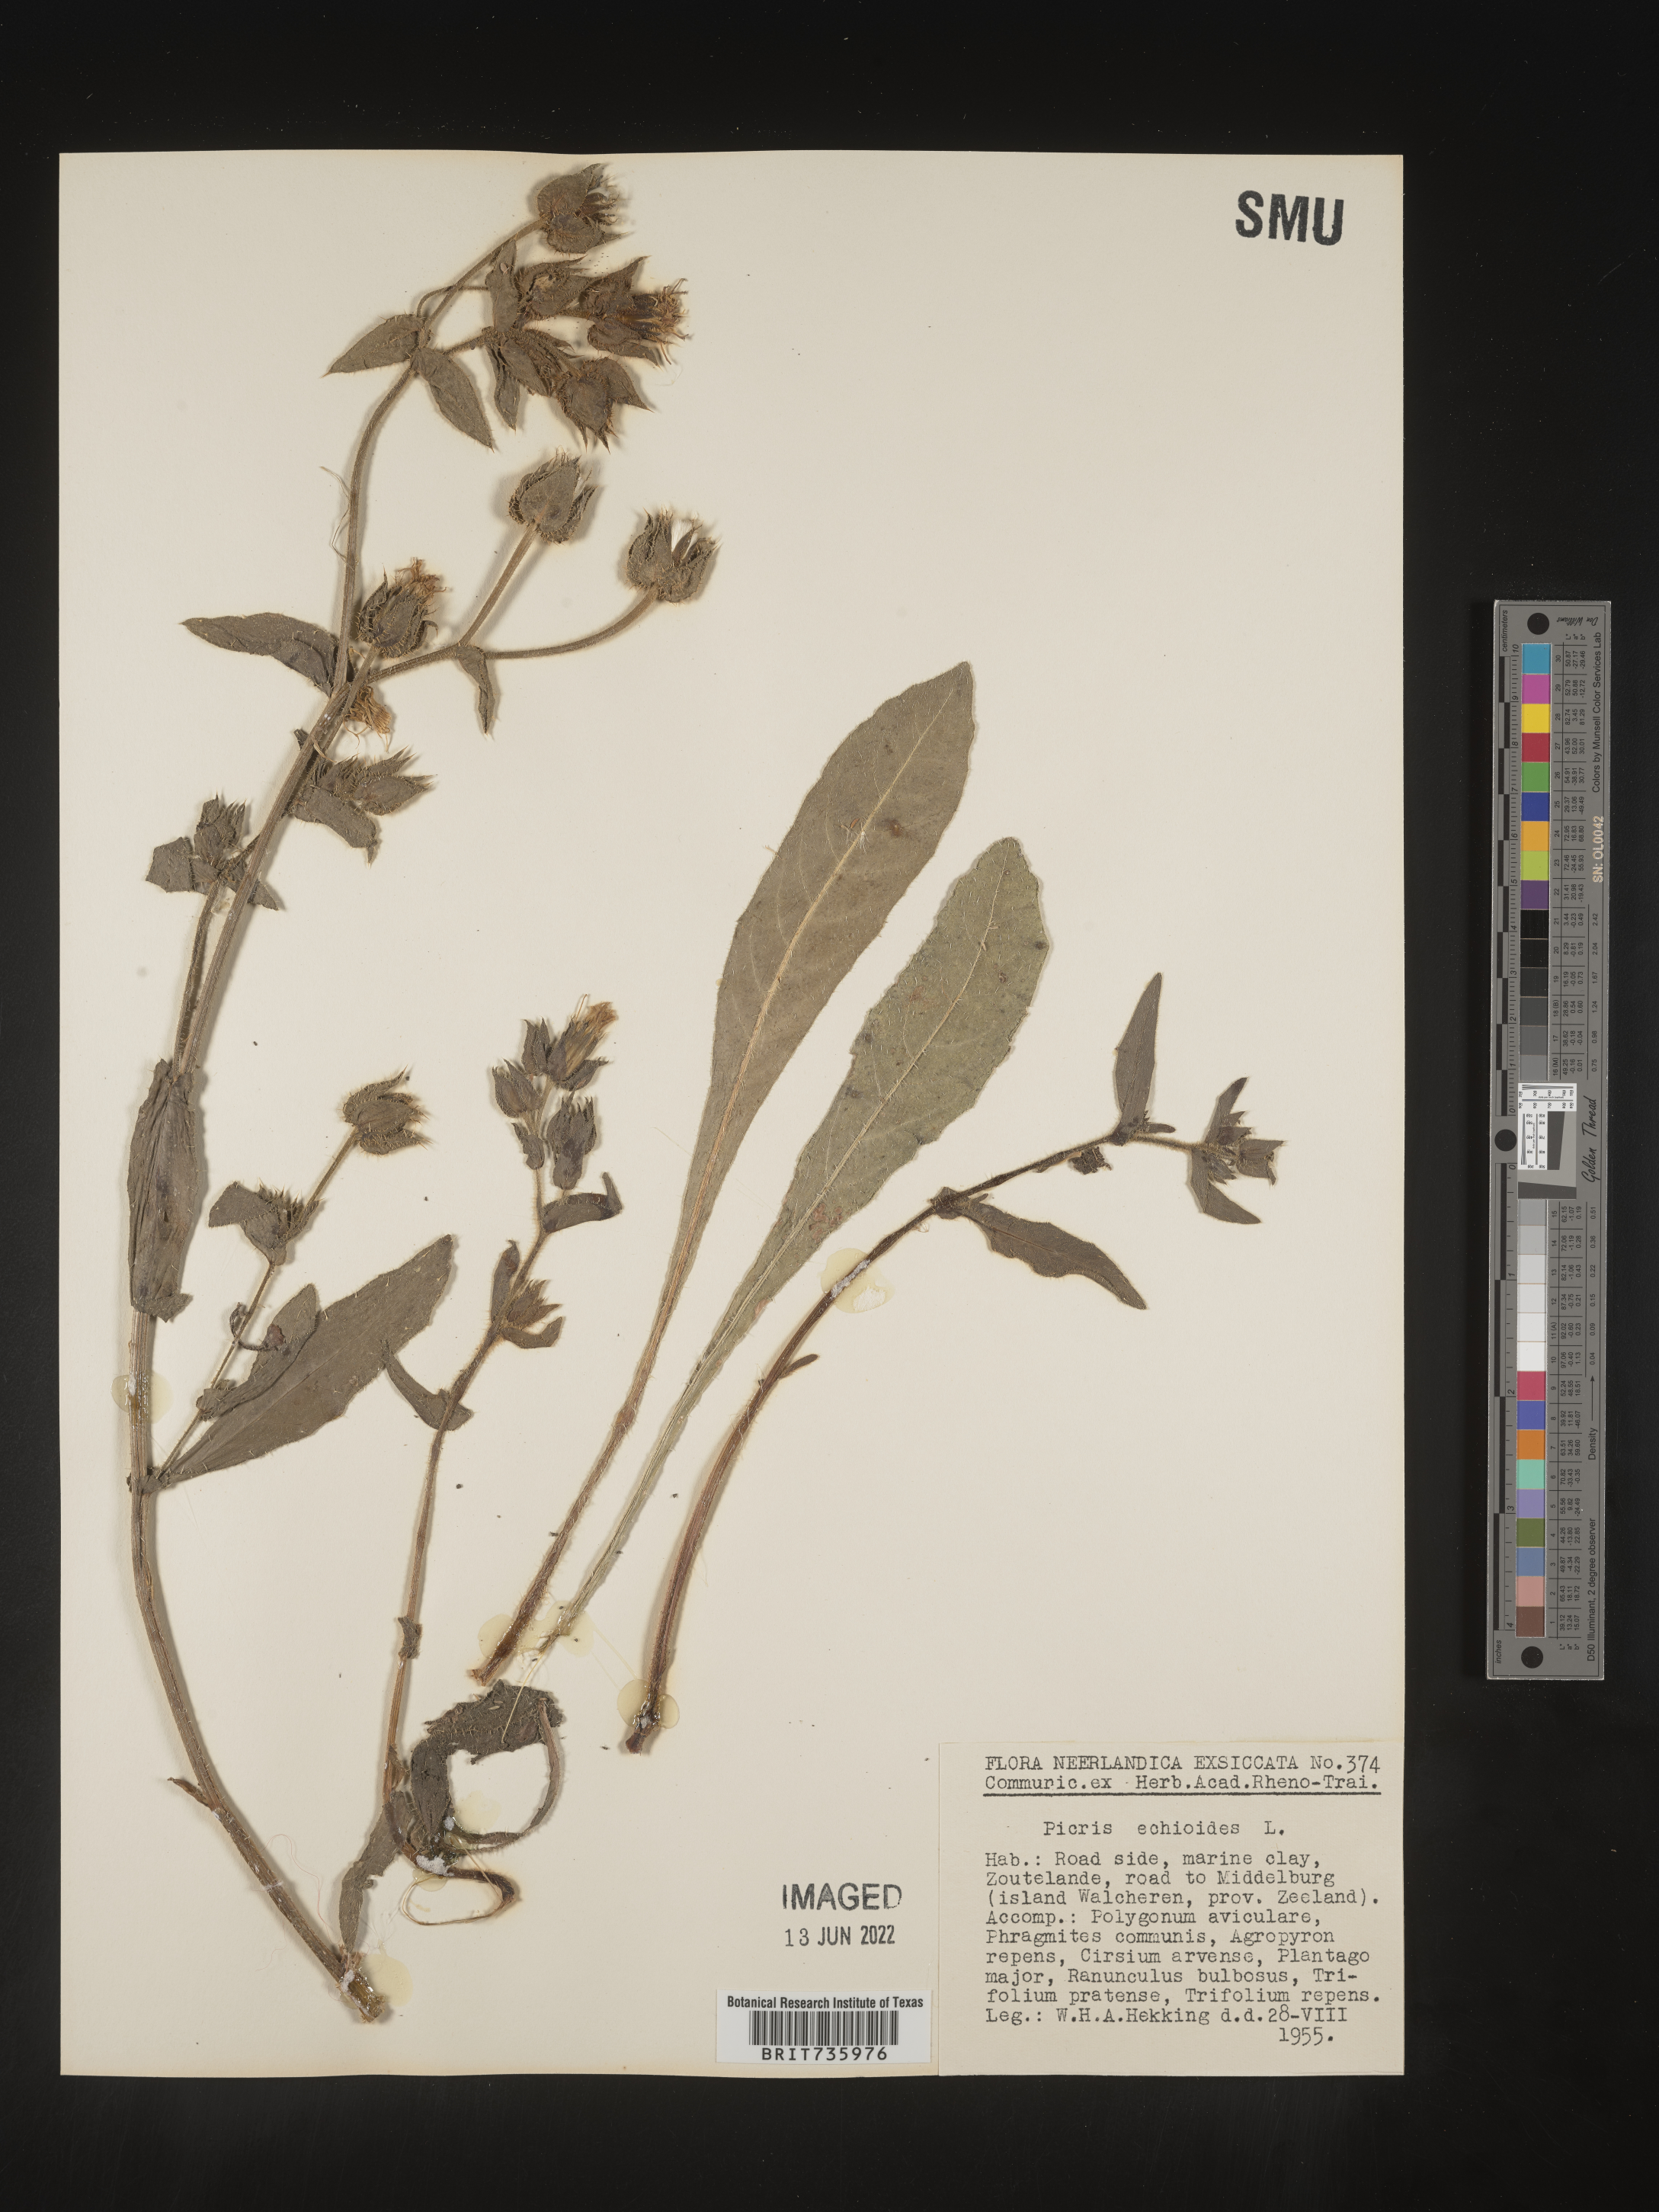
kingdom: Plantae
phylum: Tracheophyta
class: Magnoliopsida
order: Asterales
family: Asteraceae
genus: Picris
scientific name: Picris
